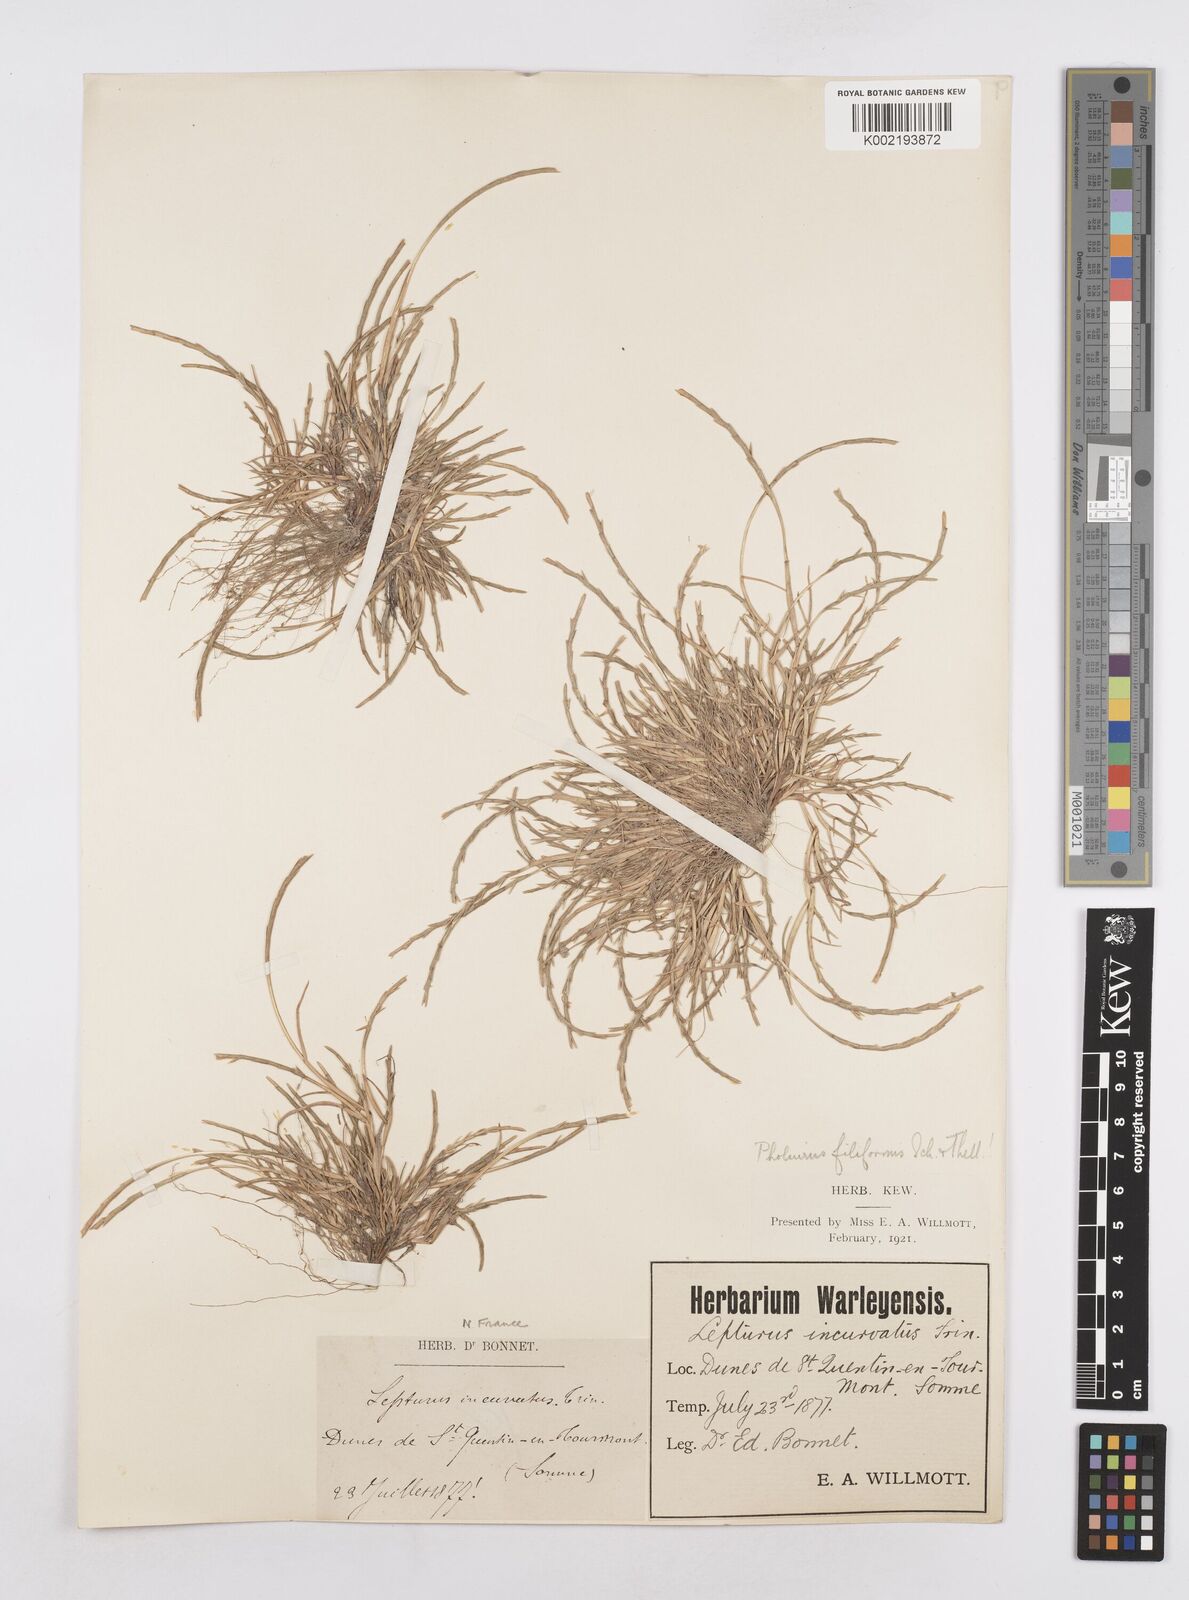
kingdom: Plantae
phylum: Tracheophyta
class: Liliopsida
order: Poales
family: Poaceae
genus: Parapholis
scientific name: Parapholis strigosa
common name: Hard-grass
